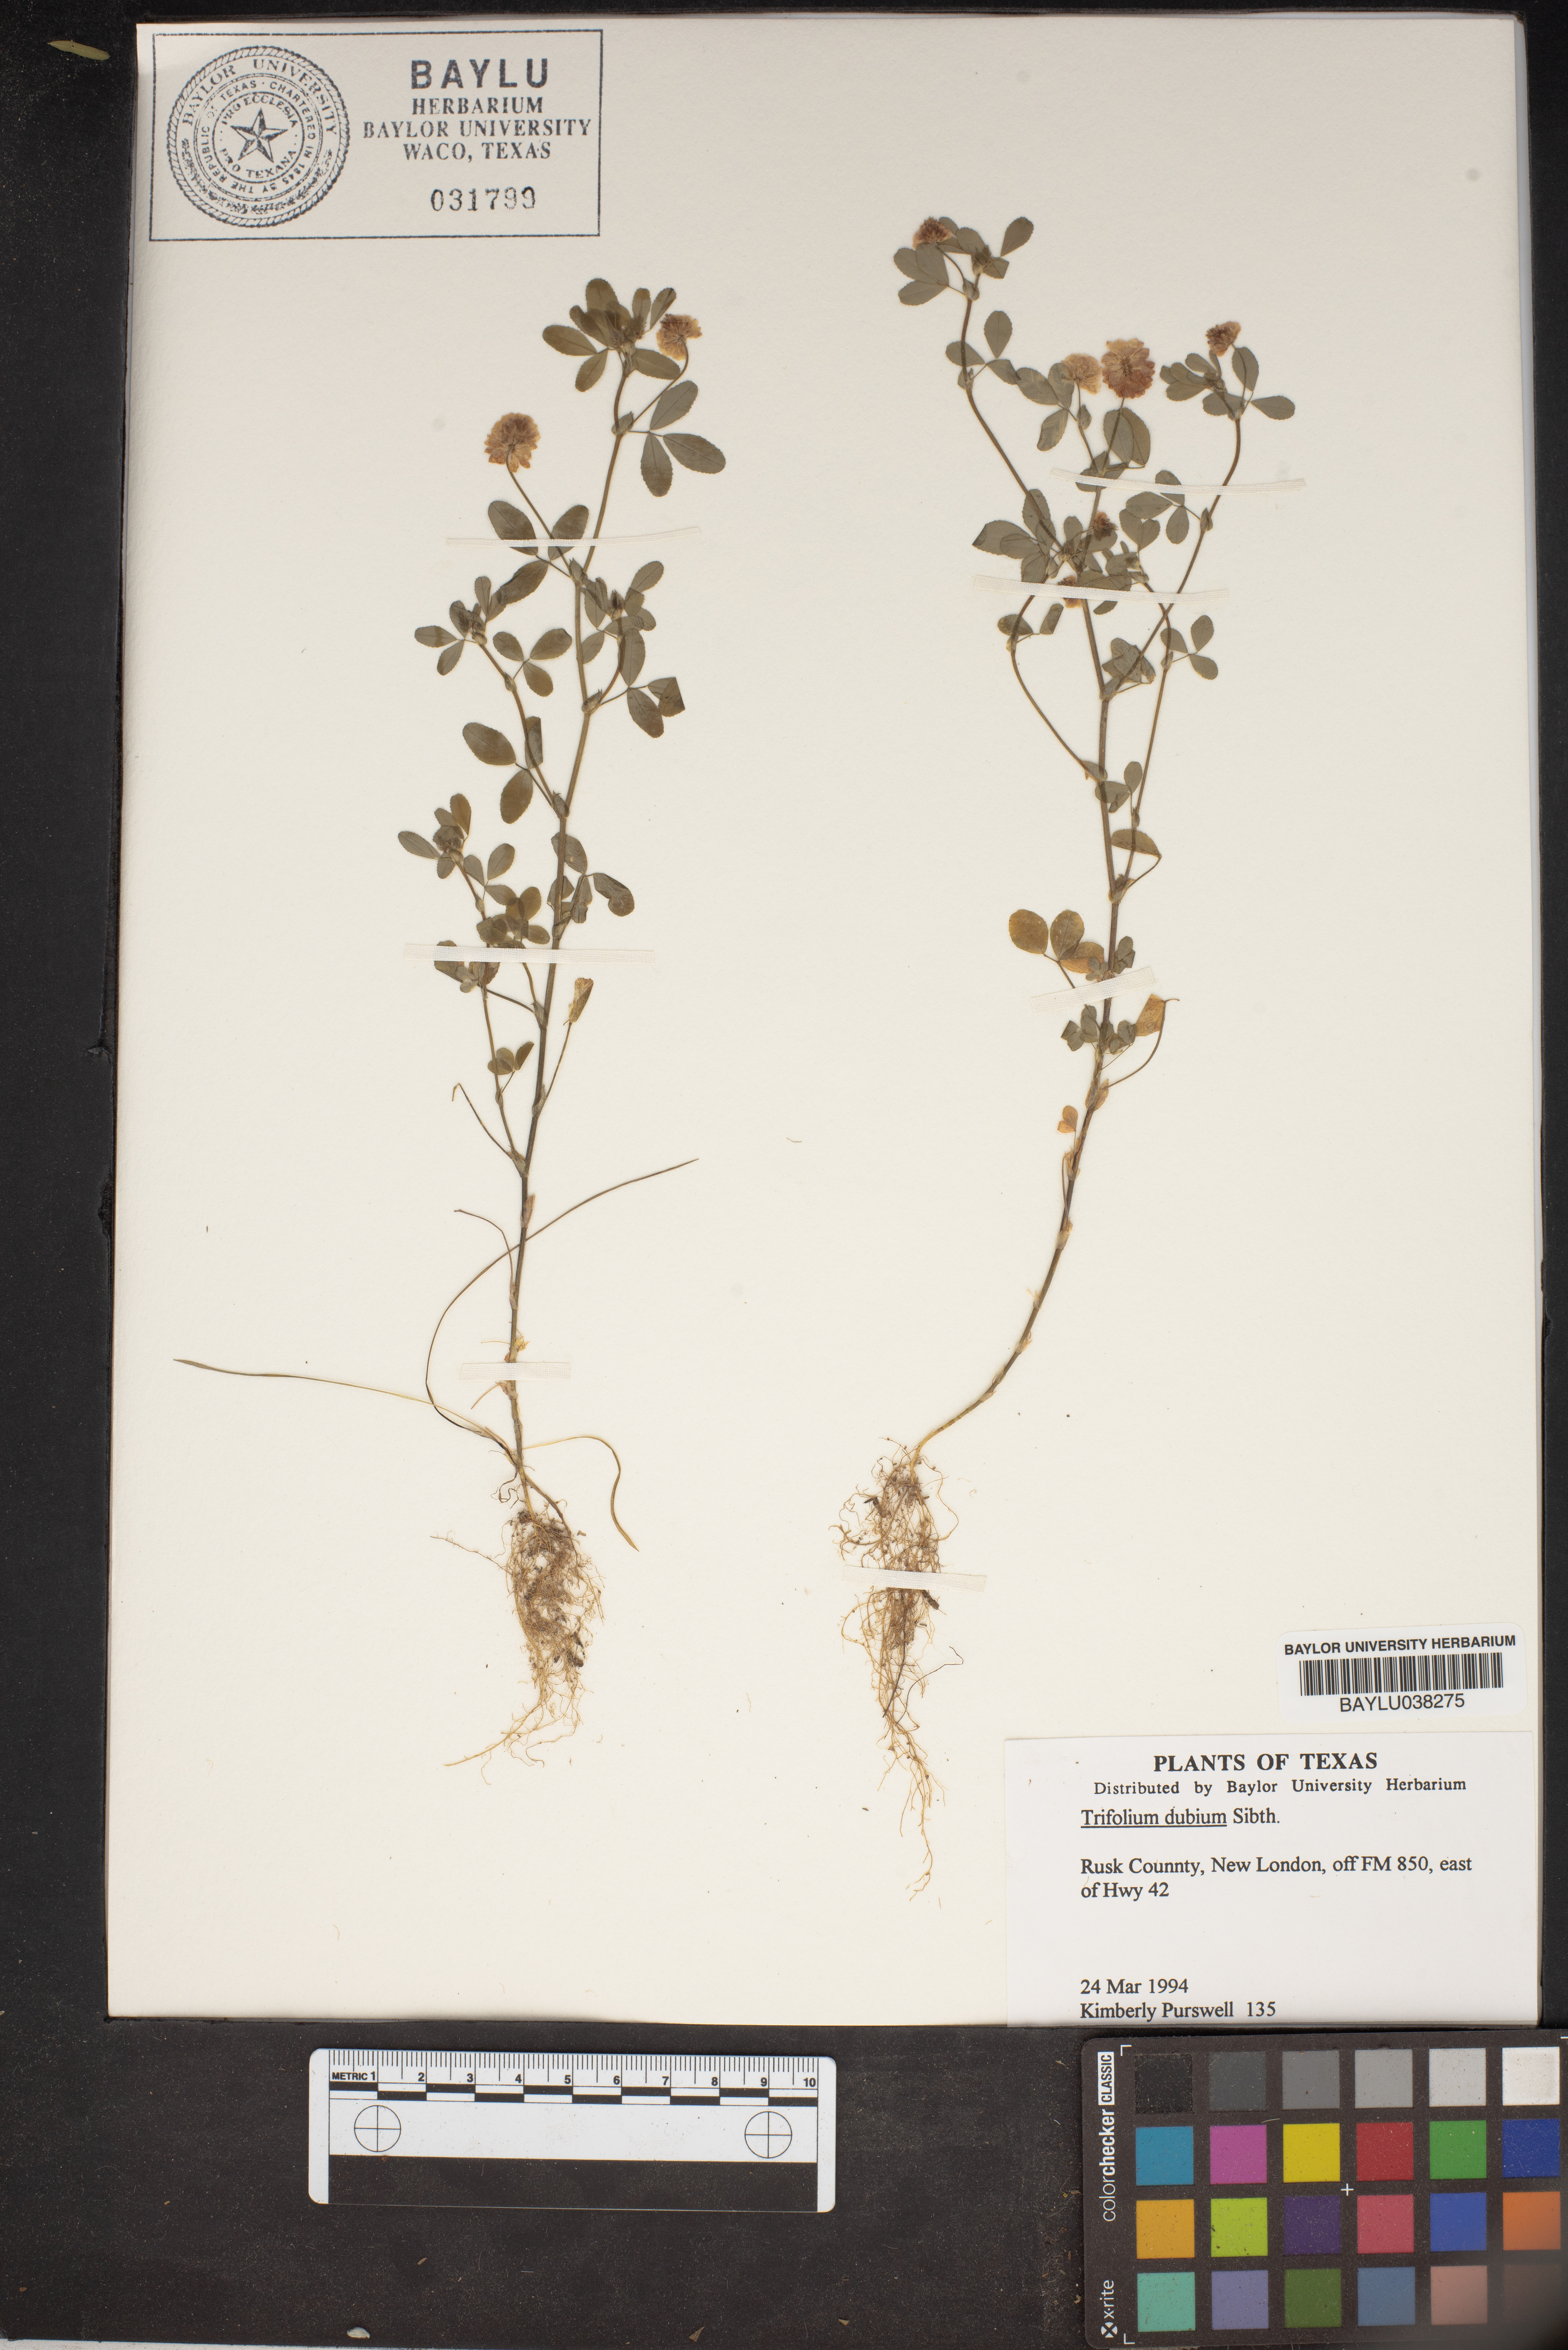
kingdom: Plantae
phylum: Tracheophyta
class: Magnoliopsida
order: Fabales
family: Fabaceae
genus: Trifolium
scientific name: Trifolium dubium
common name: Suckling clover
